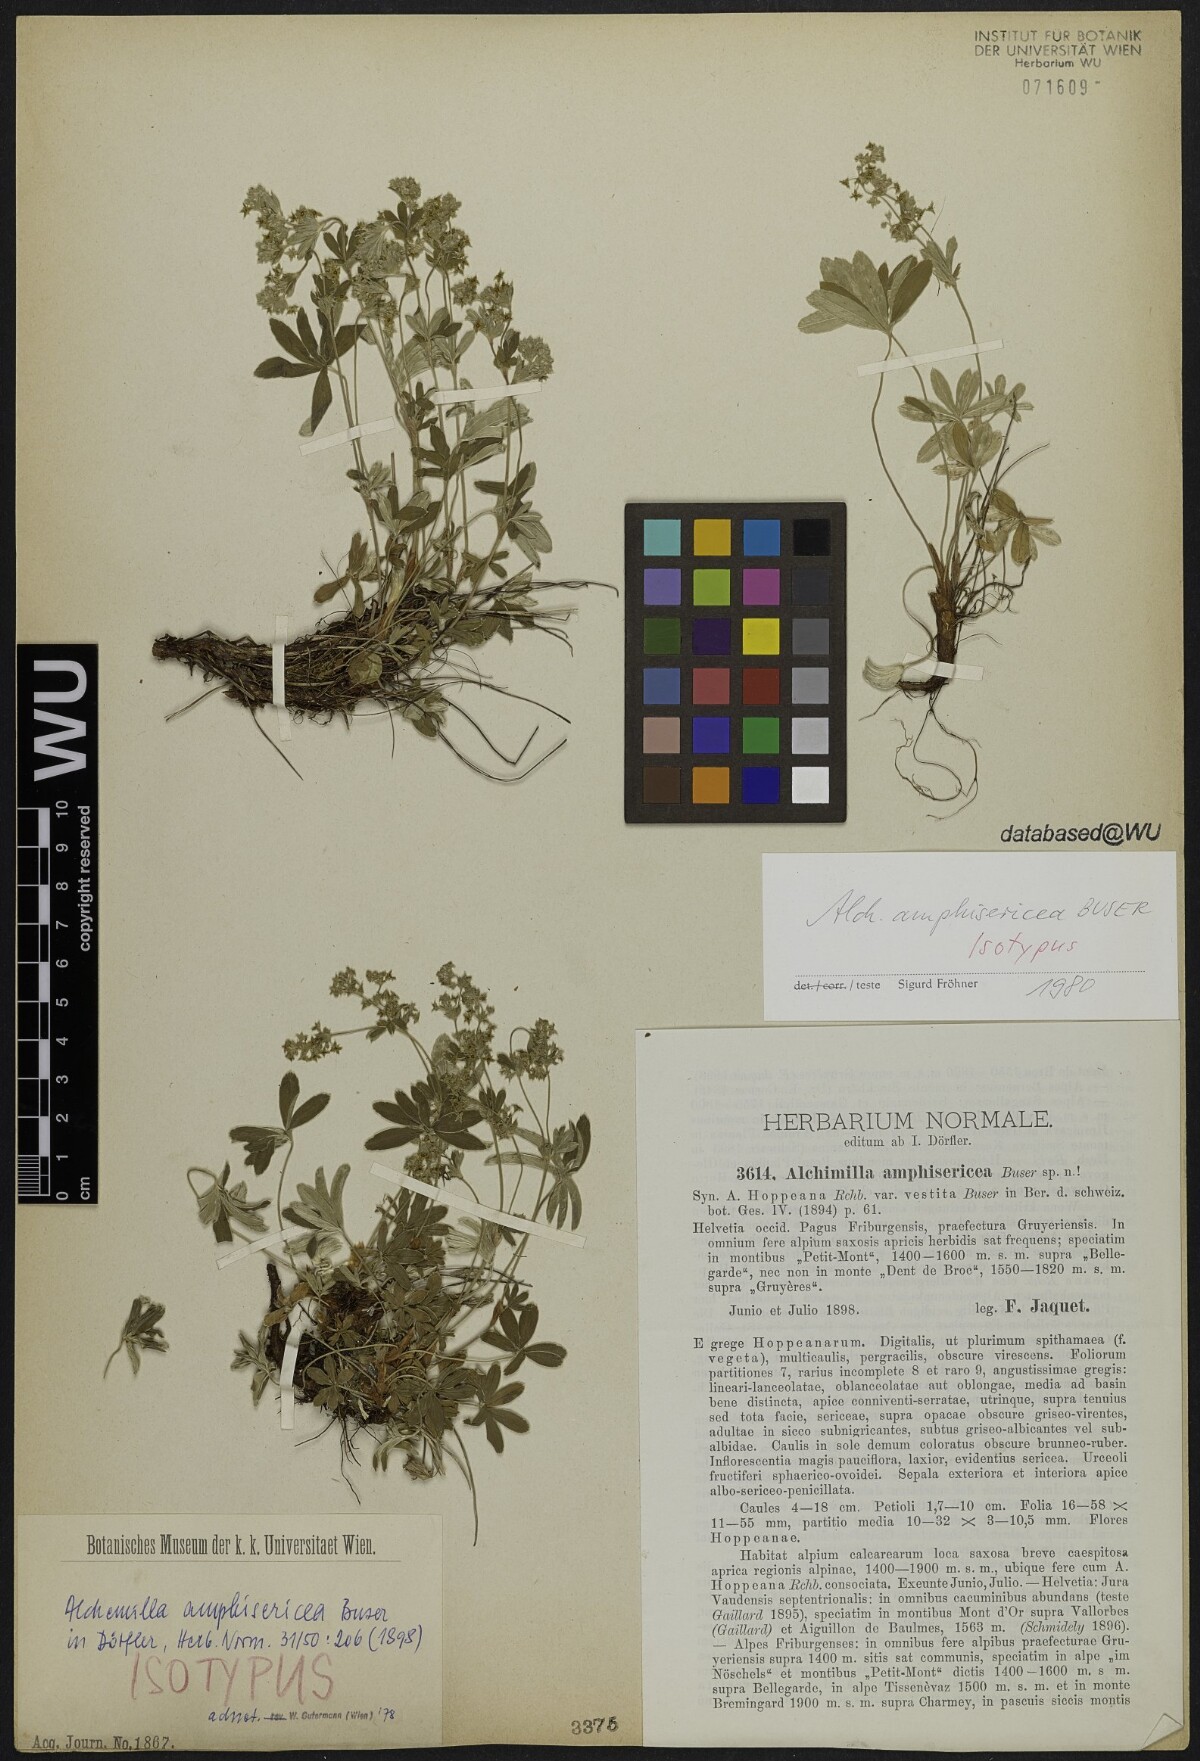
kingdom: Plantae
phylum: Tracheophyta
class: Magnoliopsida
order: Rosales
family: Rosaceae
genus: Alchemilla
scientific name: Alchemilla amphisericea
